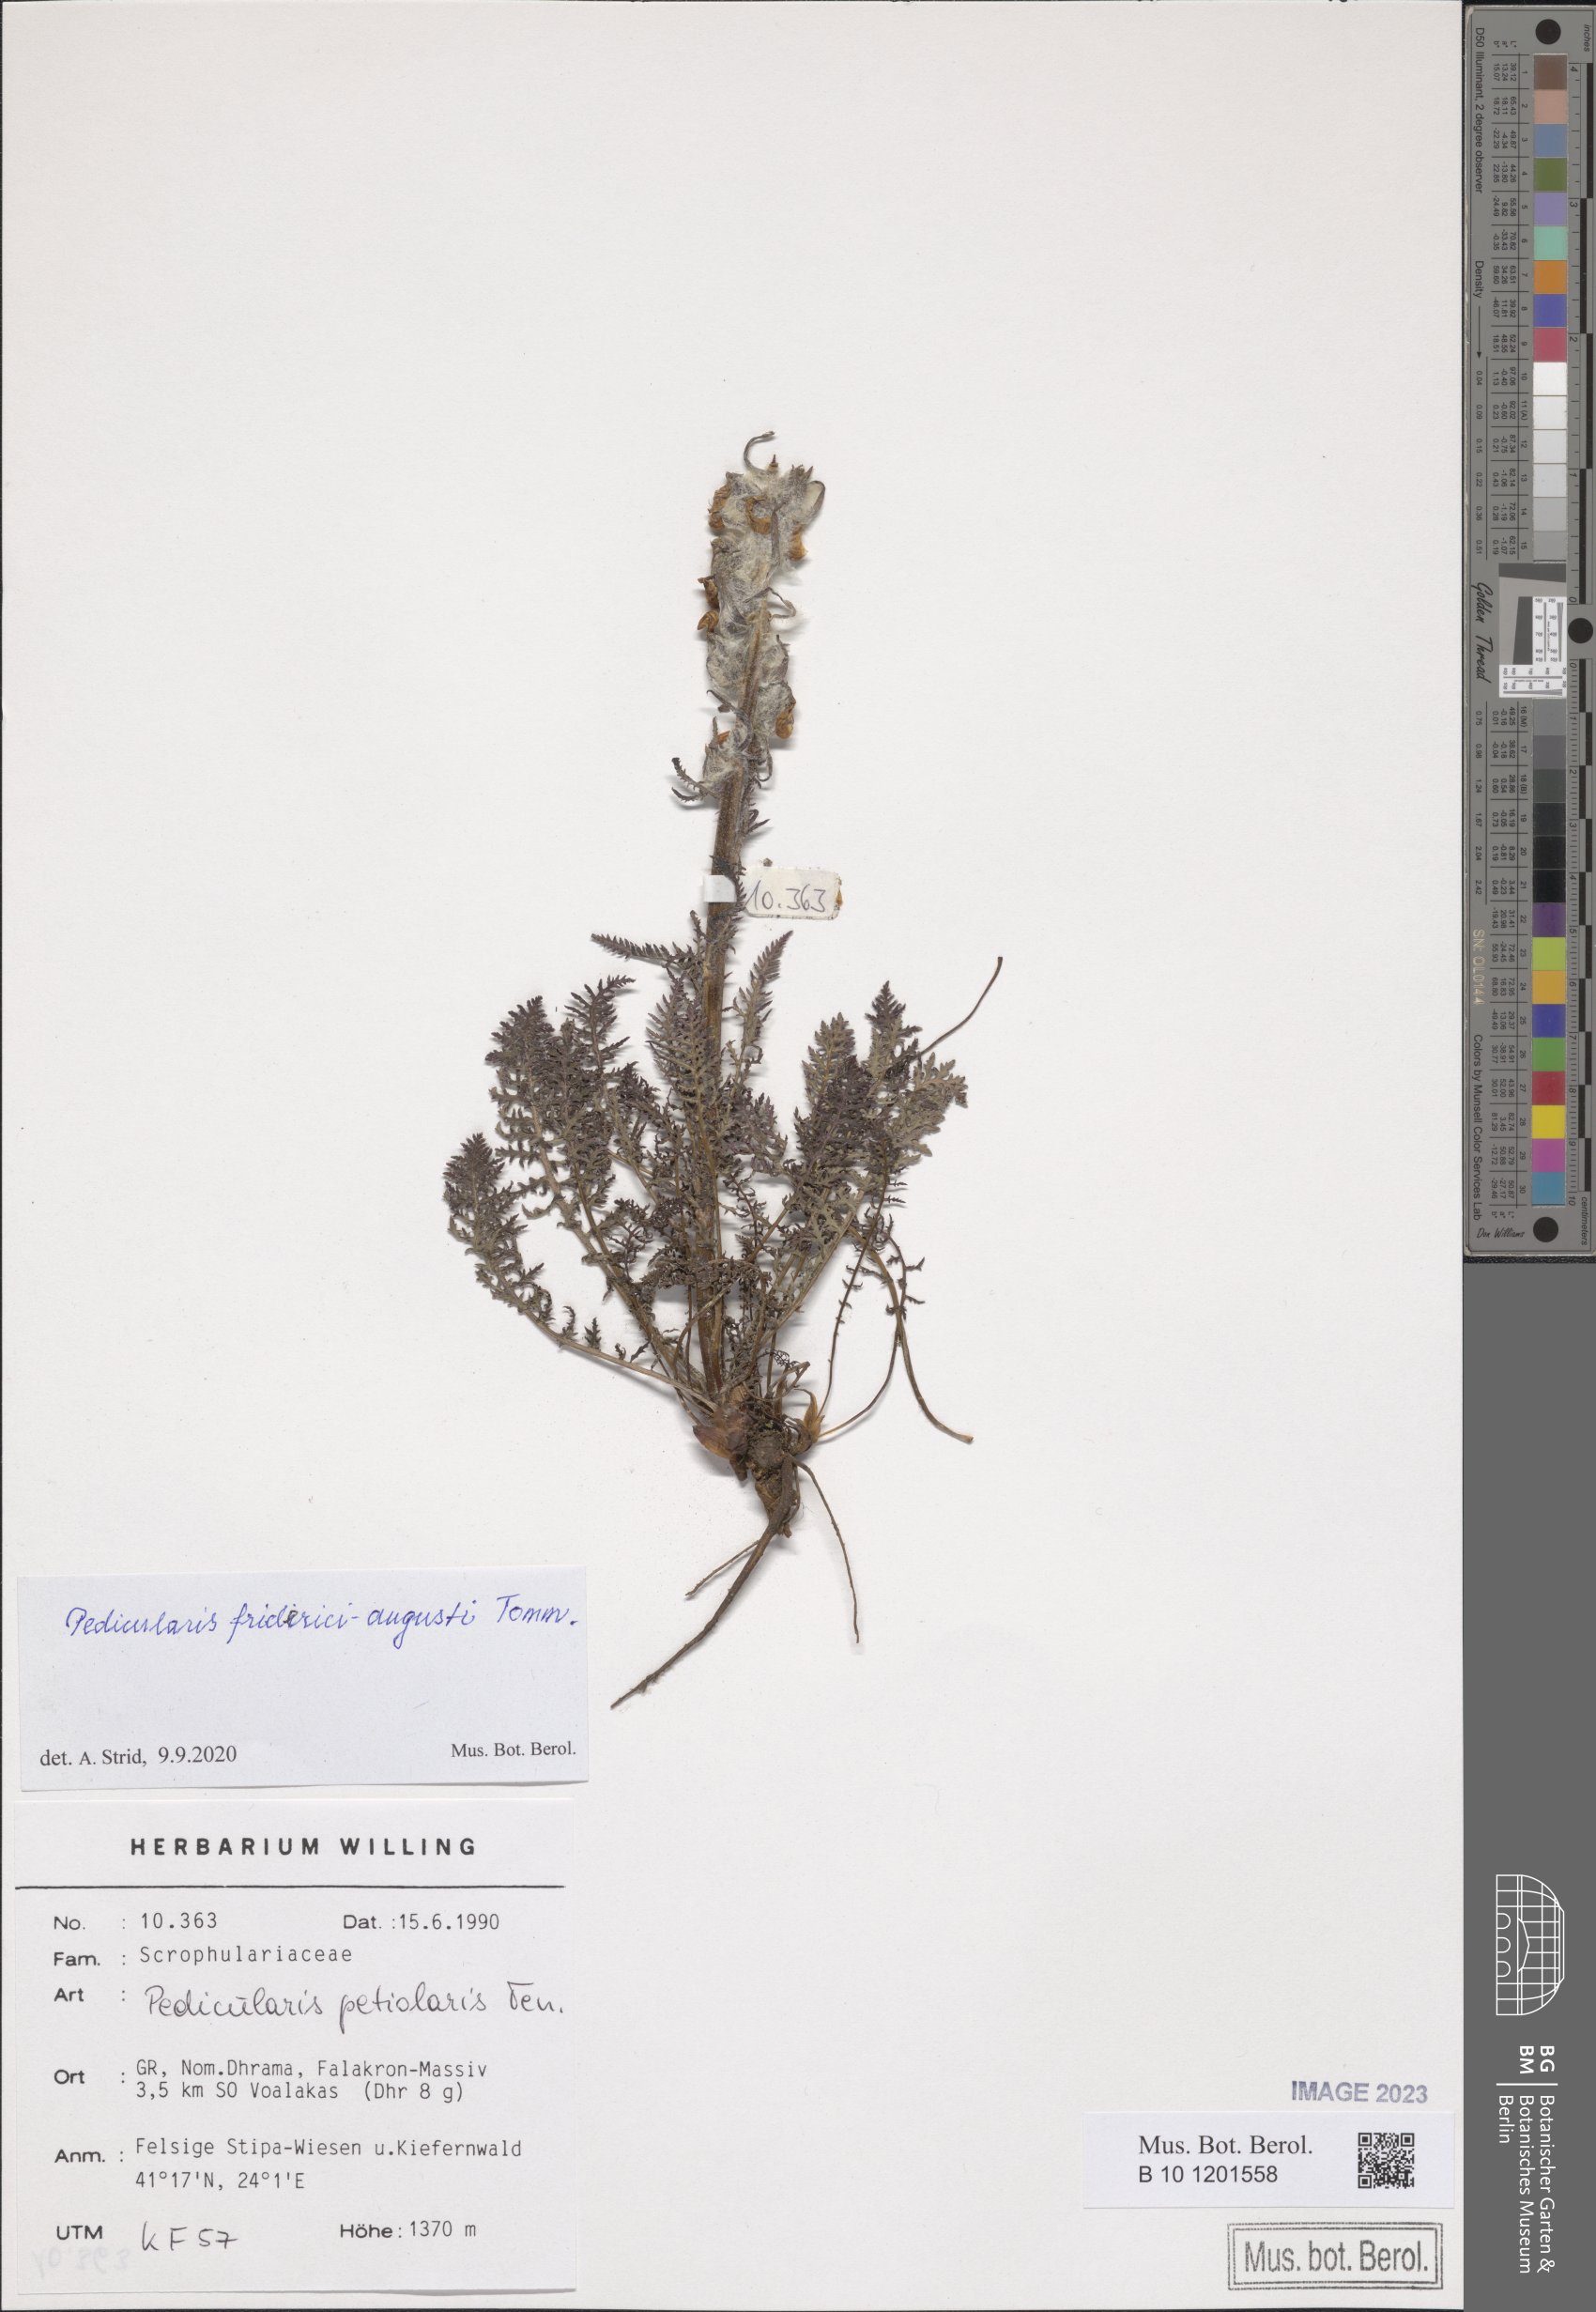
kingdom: Plantae
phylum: Tracheophyta
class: Magnoliopsida
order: Lamiales
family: Orobanchaceae
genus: Pedicularis
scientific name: Pedicularis friderici-augusti
